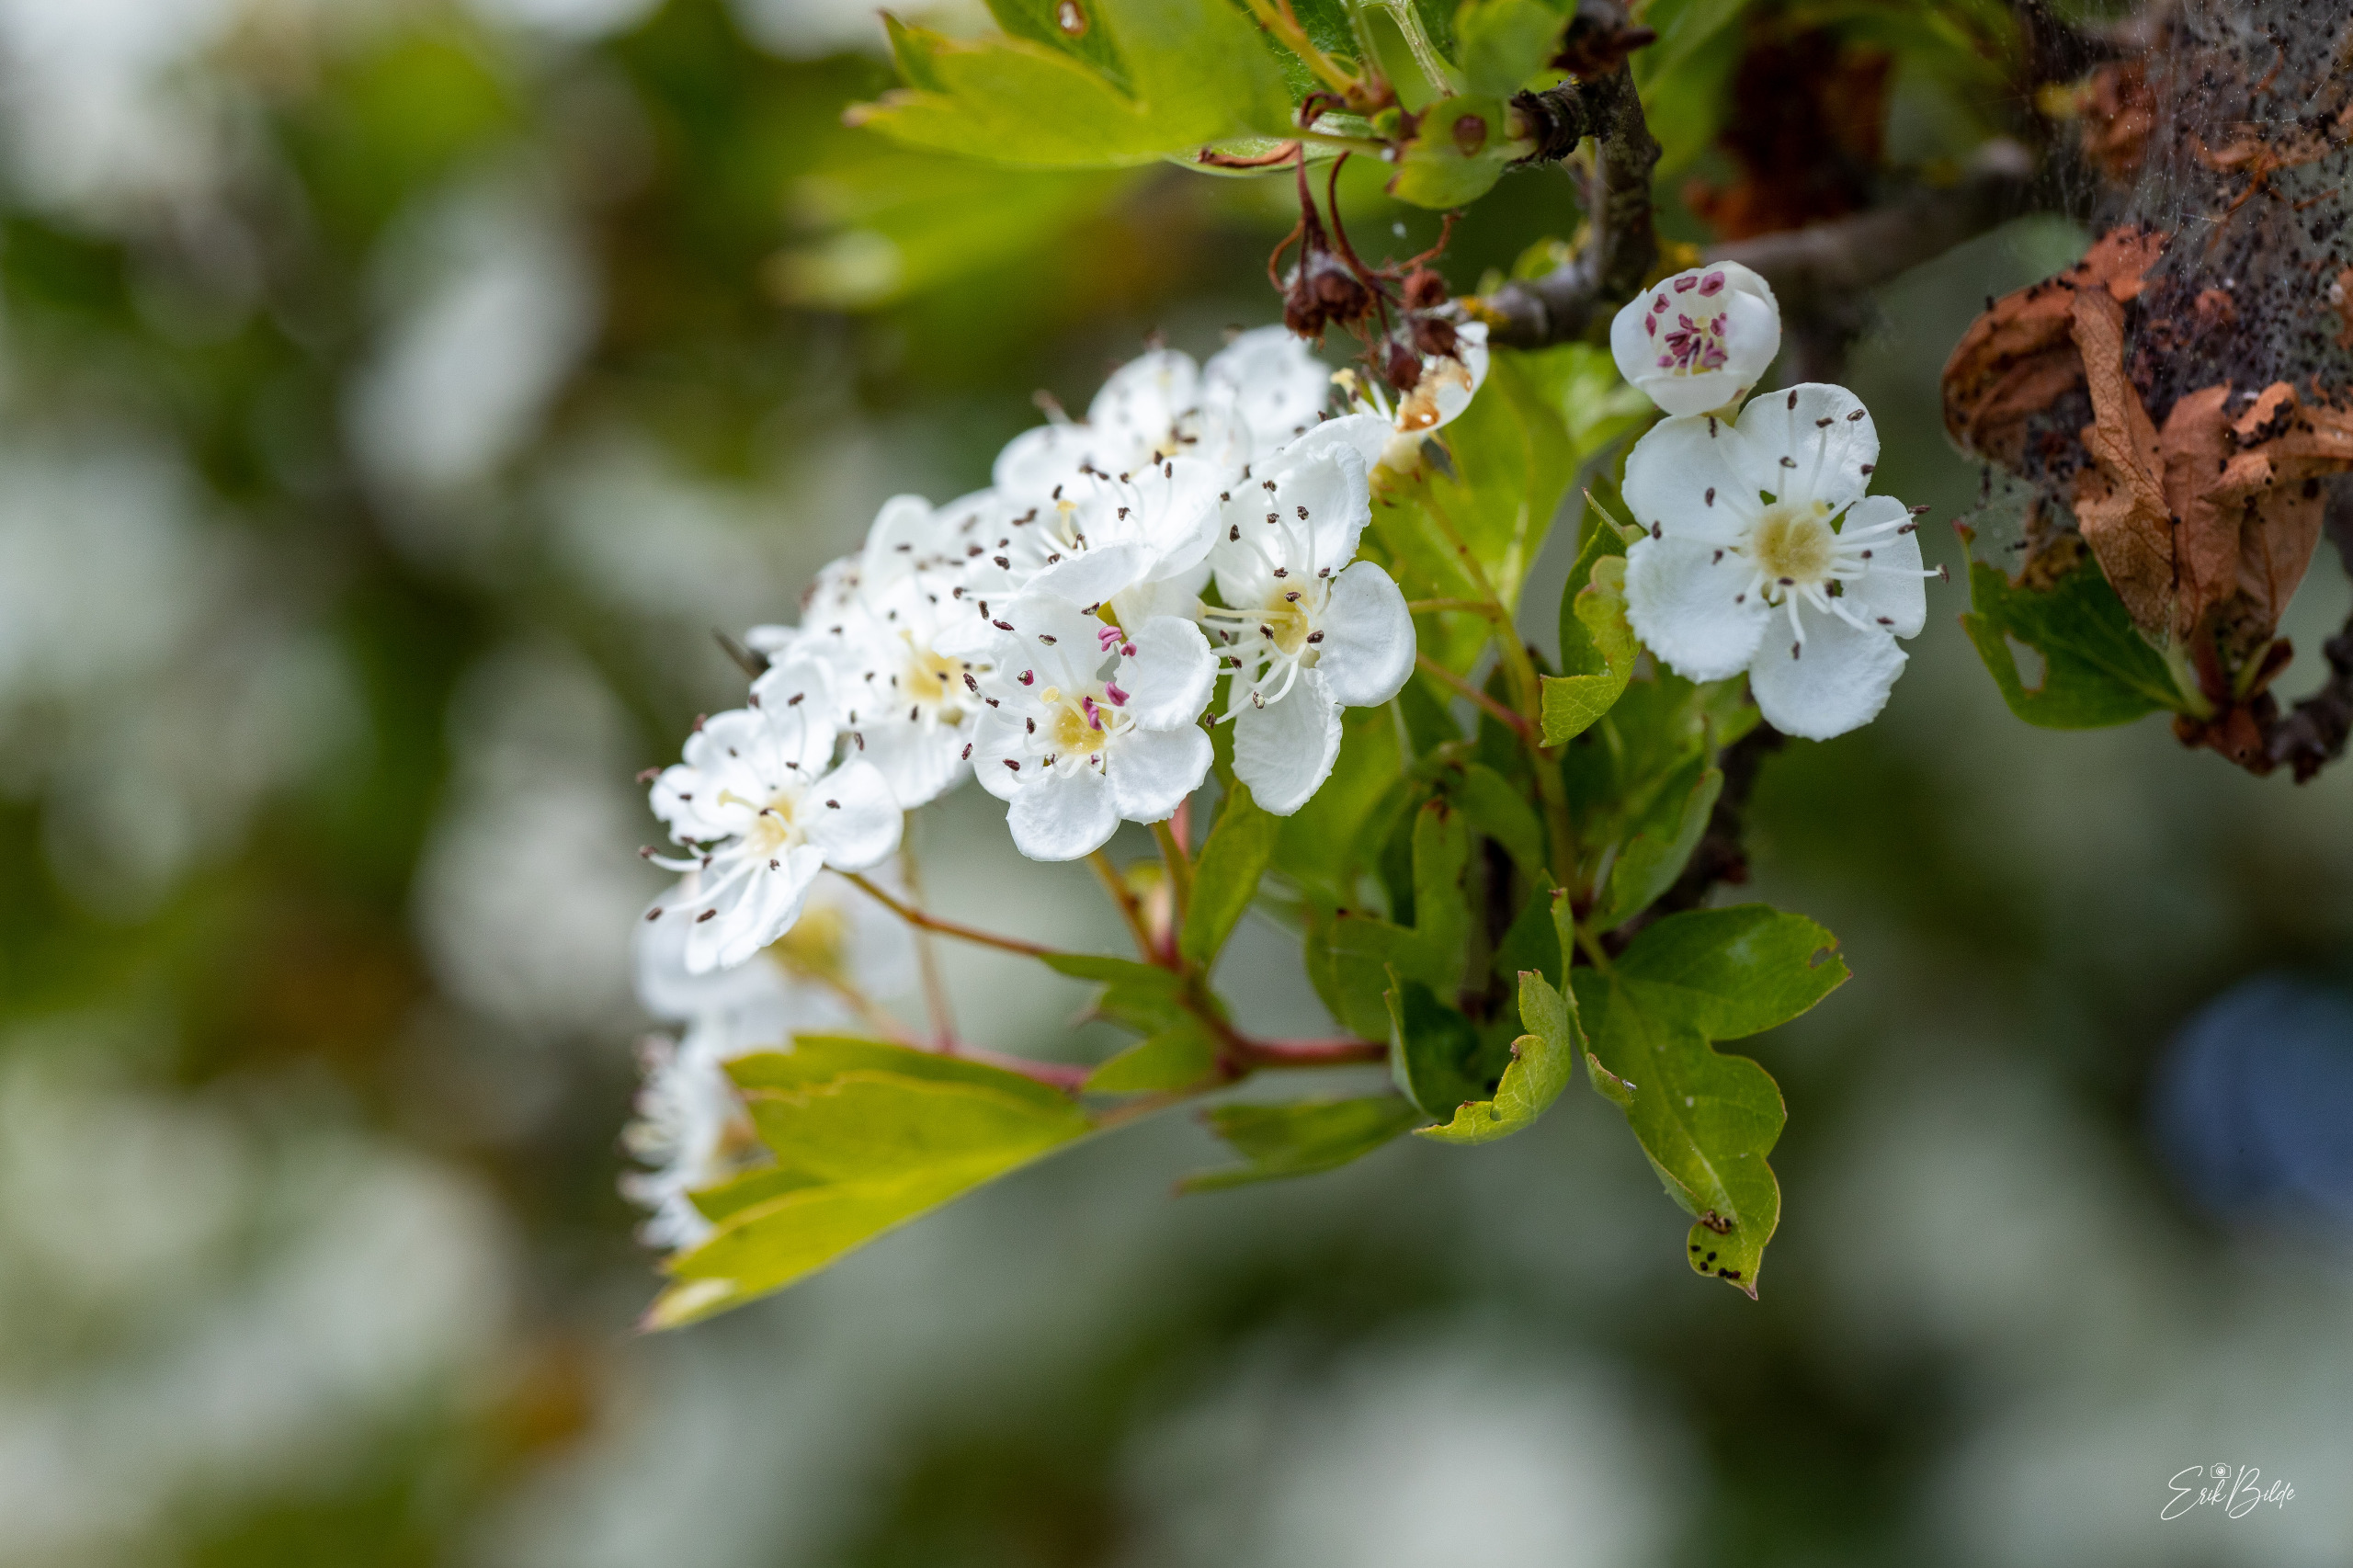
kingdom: Plantae
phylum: Tracheophyta
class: Magnoliopsida
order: Rosales
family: Rosaceae
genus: Crataegus
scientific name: Crataegus monogyna
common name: Engriflet hvidtjørn
